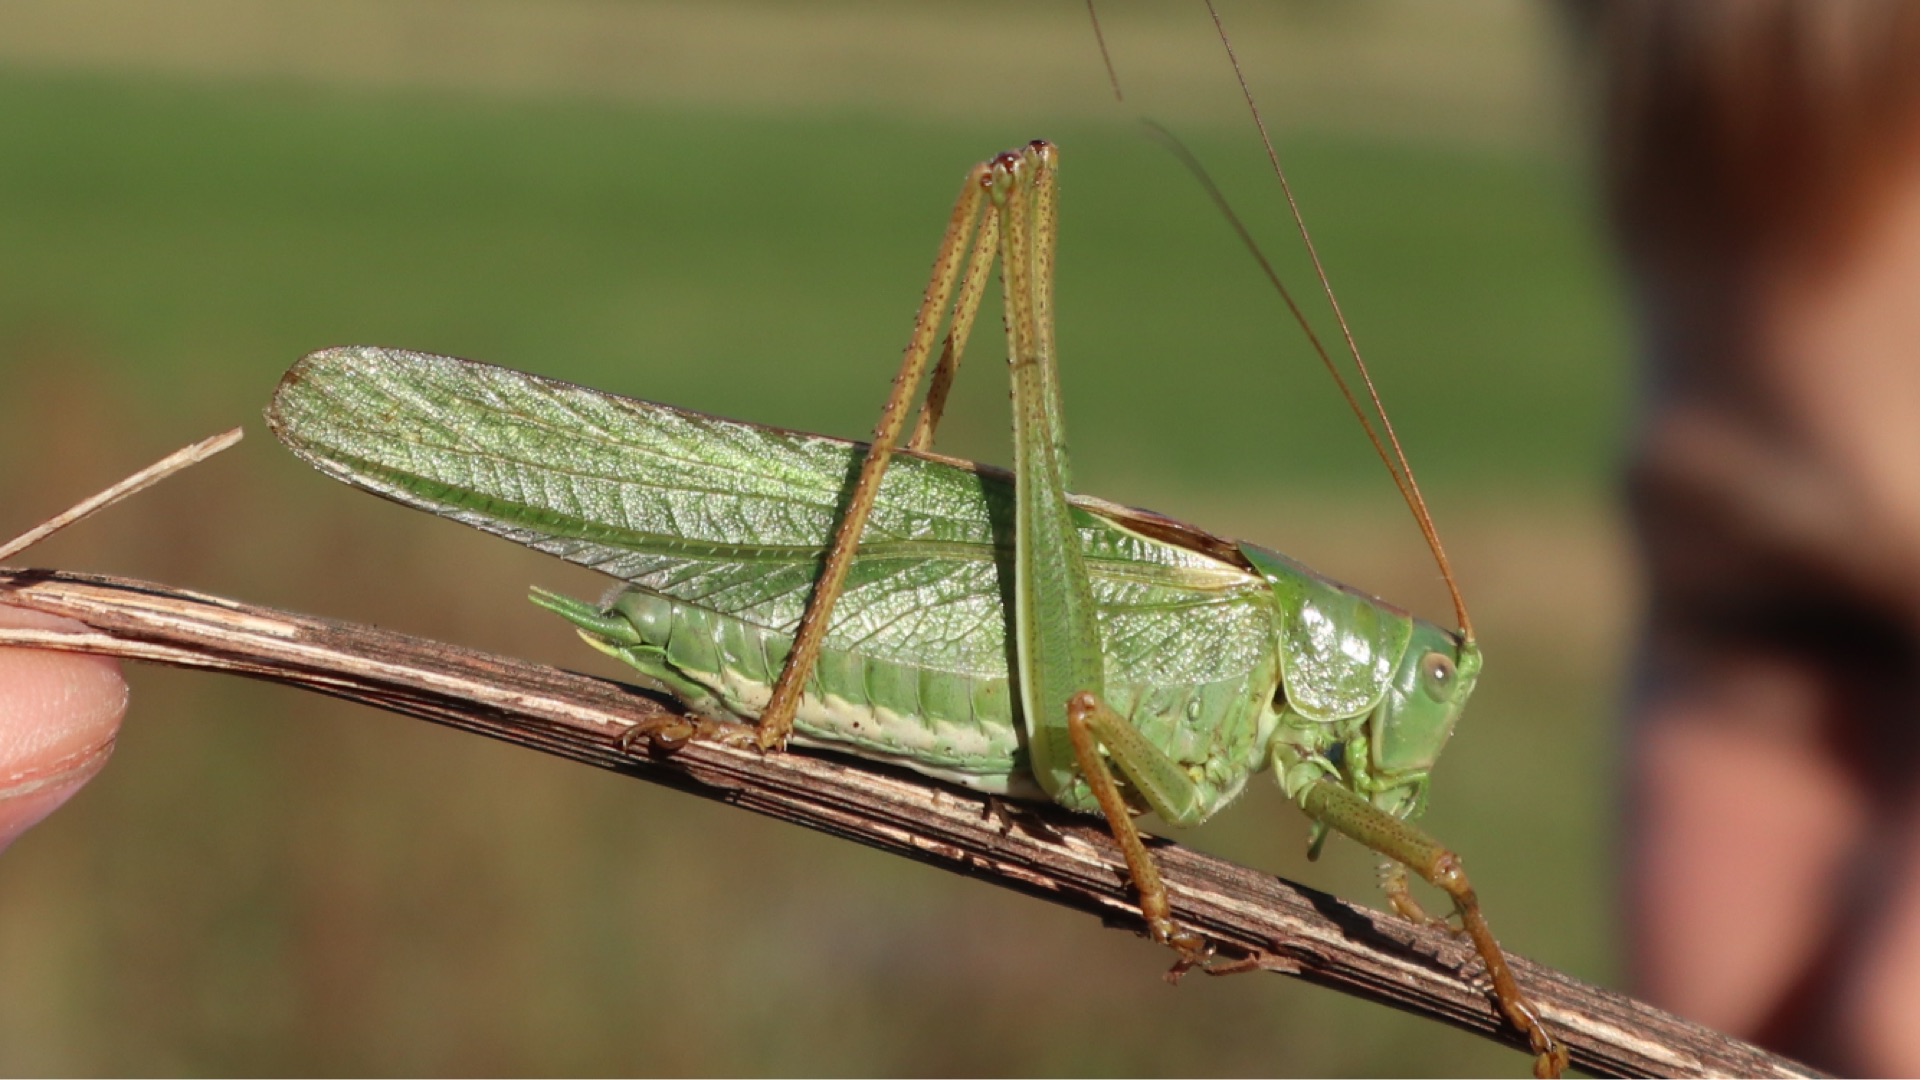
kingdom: Animalia
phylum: Arthropoda
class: Insecta
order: Orthoptera
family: Tettigoniidae
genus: Tettigonia
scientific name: Tettigonia viridissima
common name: Stor grøn løvgræshoppe
